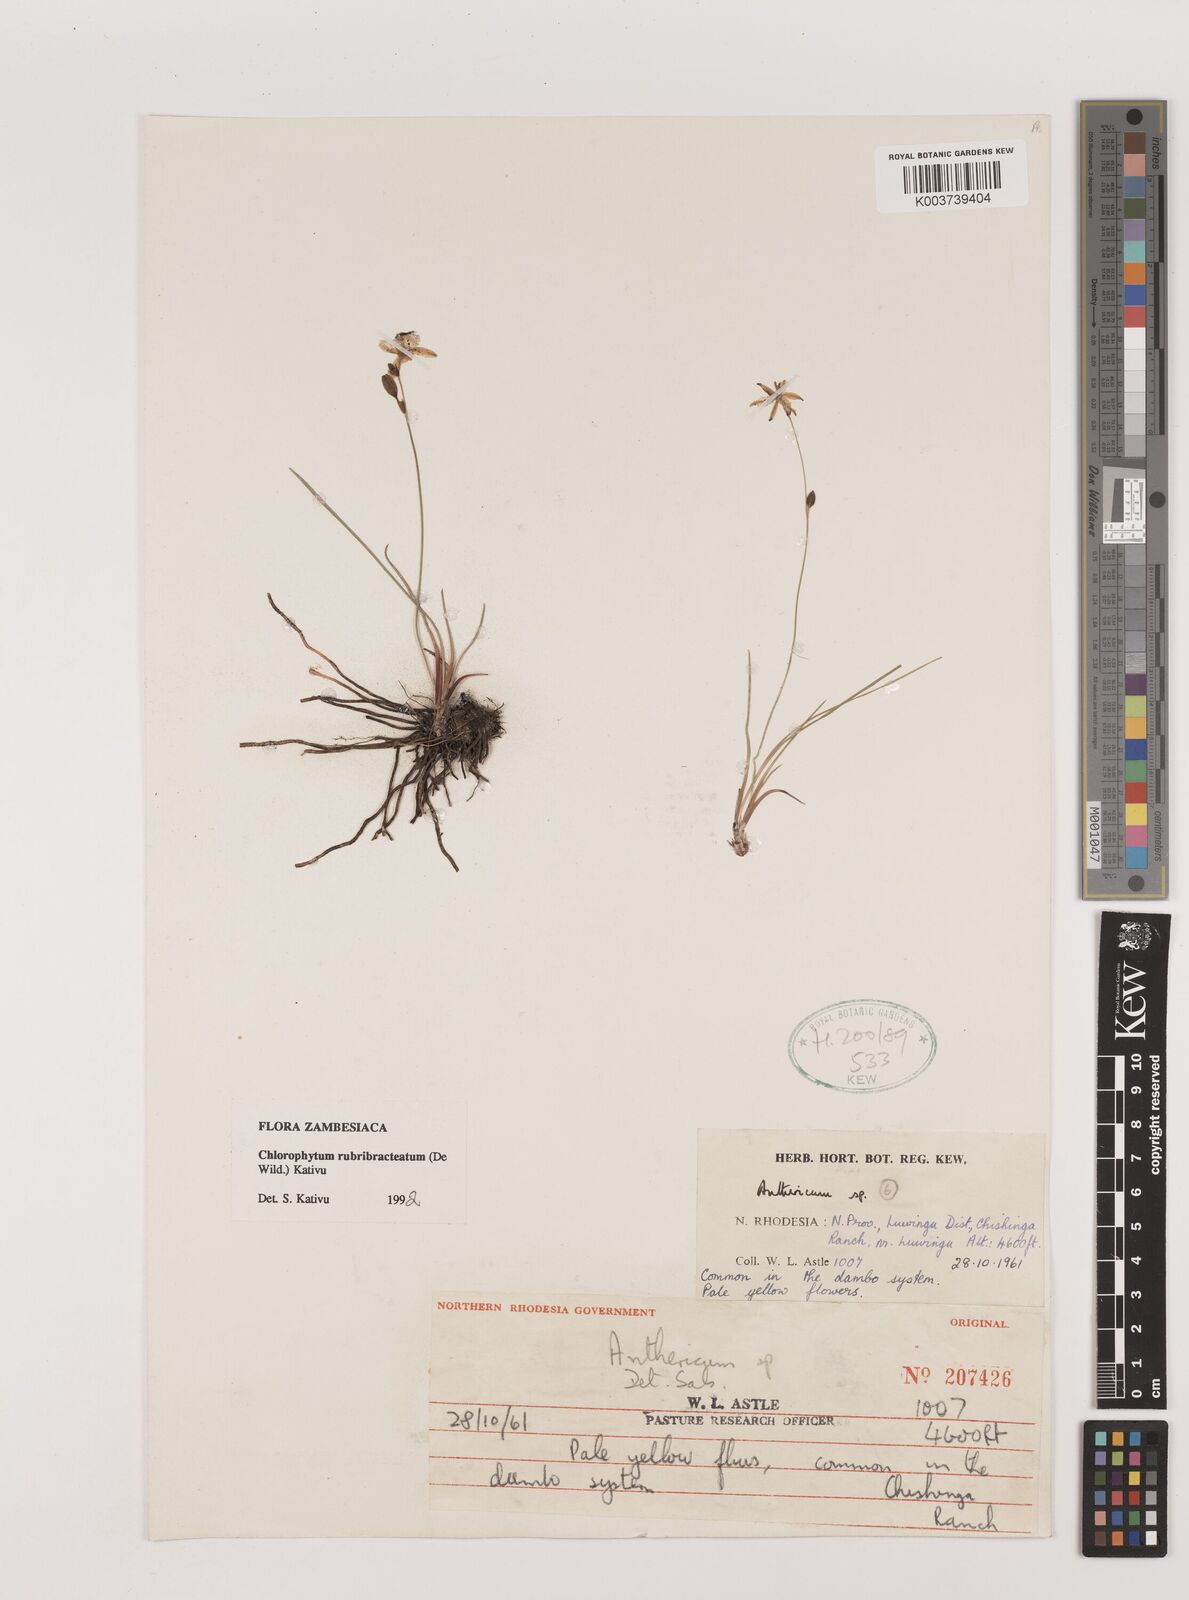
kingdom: Plantae
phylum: Tracheophyta
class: Liliopsida
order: Asparagales
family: Asparagaceae
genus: Chlorophytum
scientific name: Chlorophytum rubribracteatum
